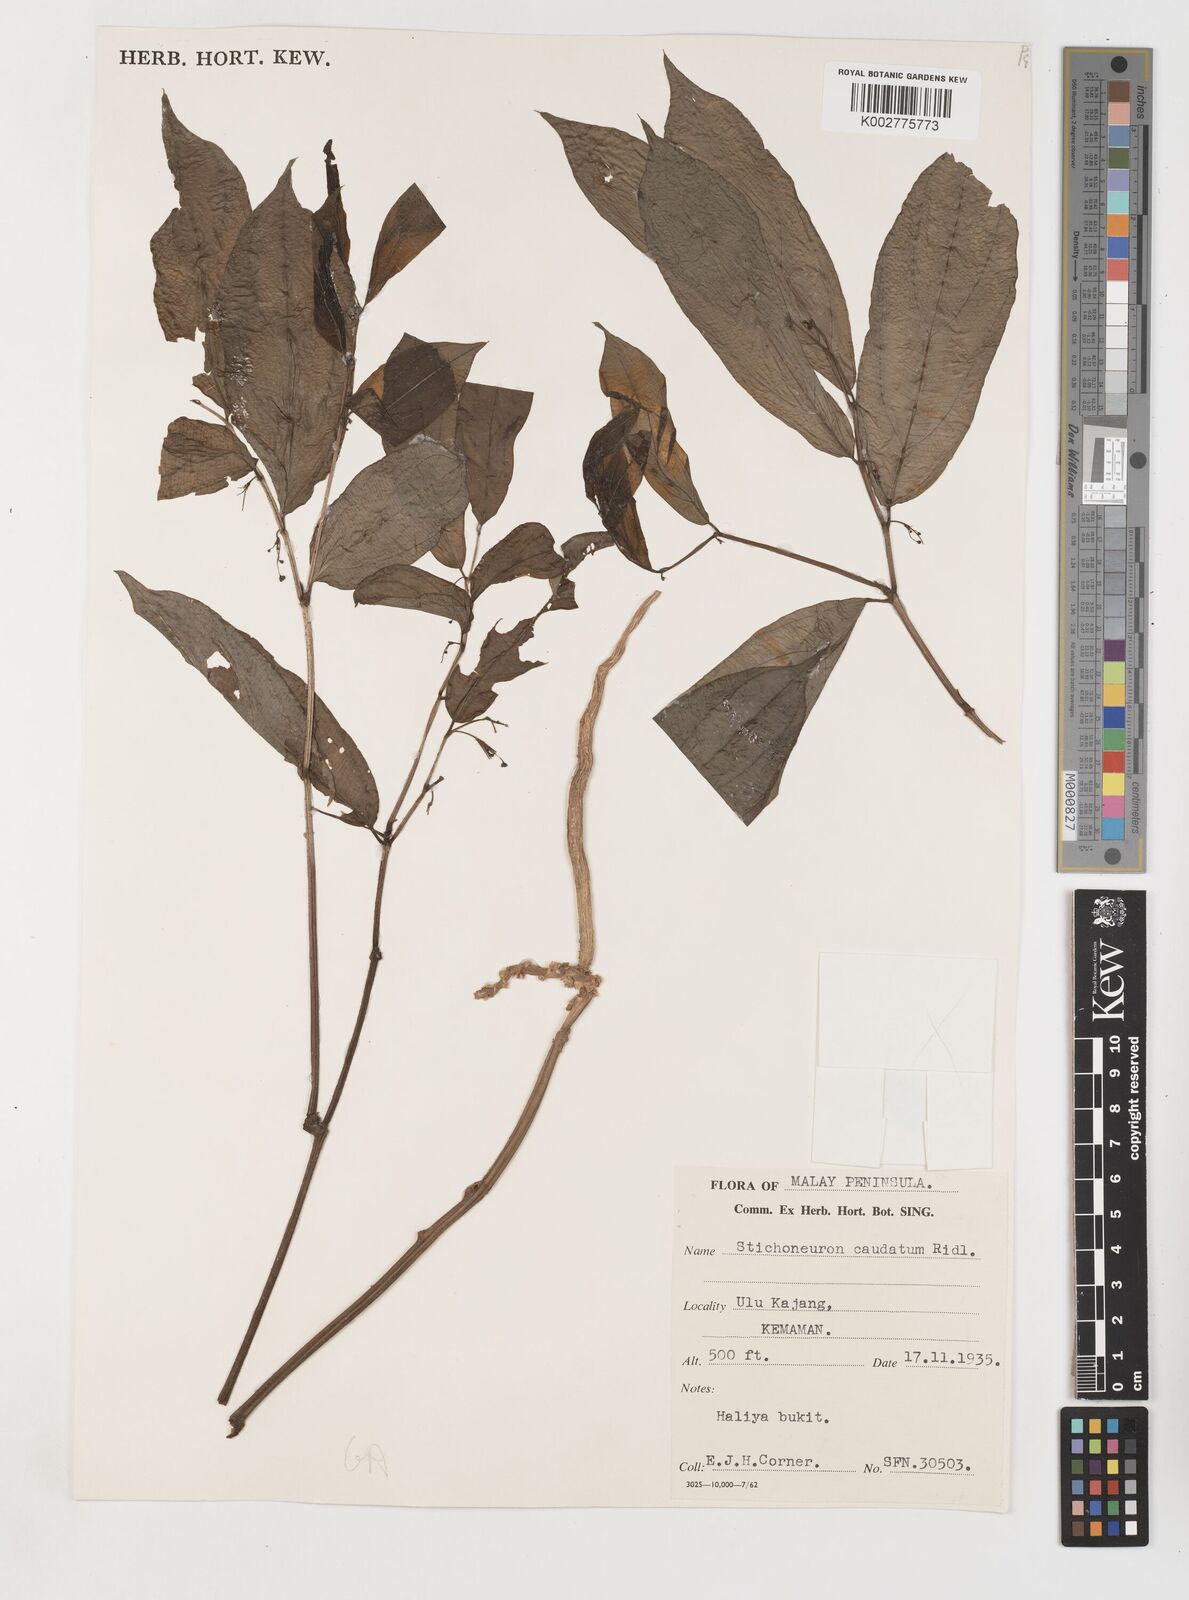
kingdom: Plantae
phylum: Tracheophyta
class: Liliopsida
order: Pandanales
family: Stemonaceae
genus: Stichoneuron
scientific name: Stichoneuron caudatum
